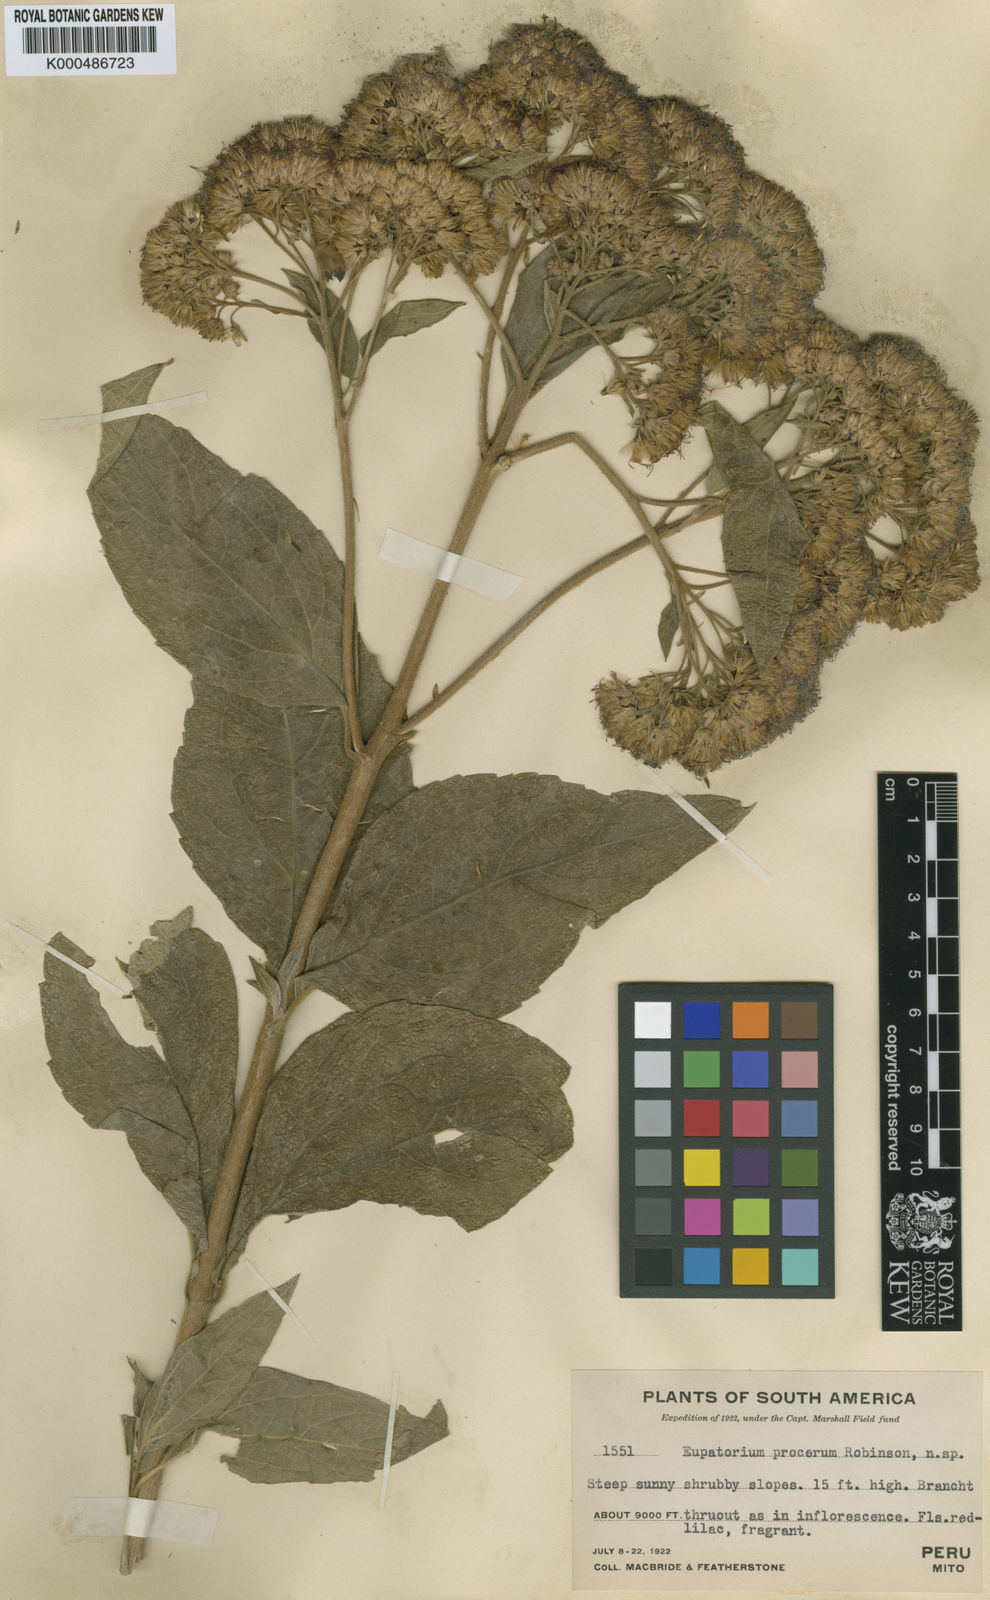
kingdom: Plantae
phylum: Tracheophyta
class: Magnoliopsida
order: Asterales
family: Asteraceae
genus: Badilloa
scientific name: Badilloa procera
